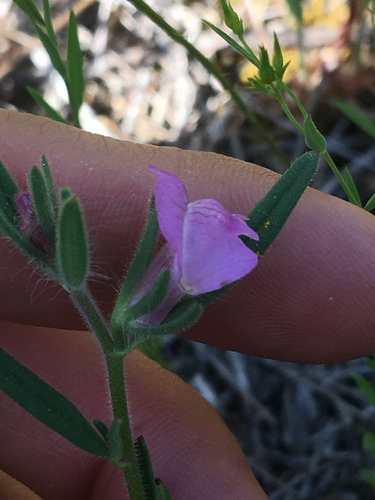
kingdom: Plantae
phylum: Tracheophyta
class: Magnoliopsida
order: Lamiales
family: Plantaginaceae
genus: Misopates
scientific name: Misopates orontium
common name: Weasel's-snout
